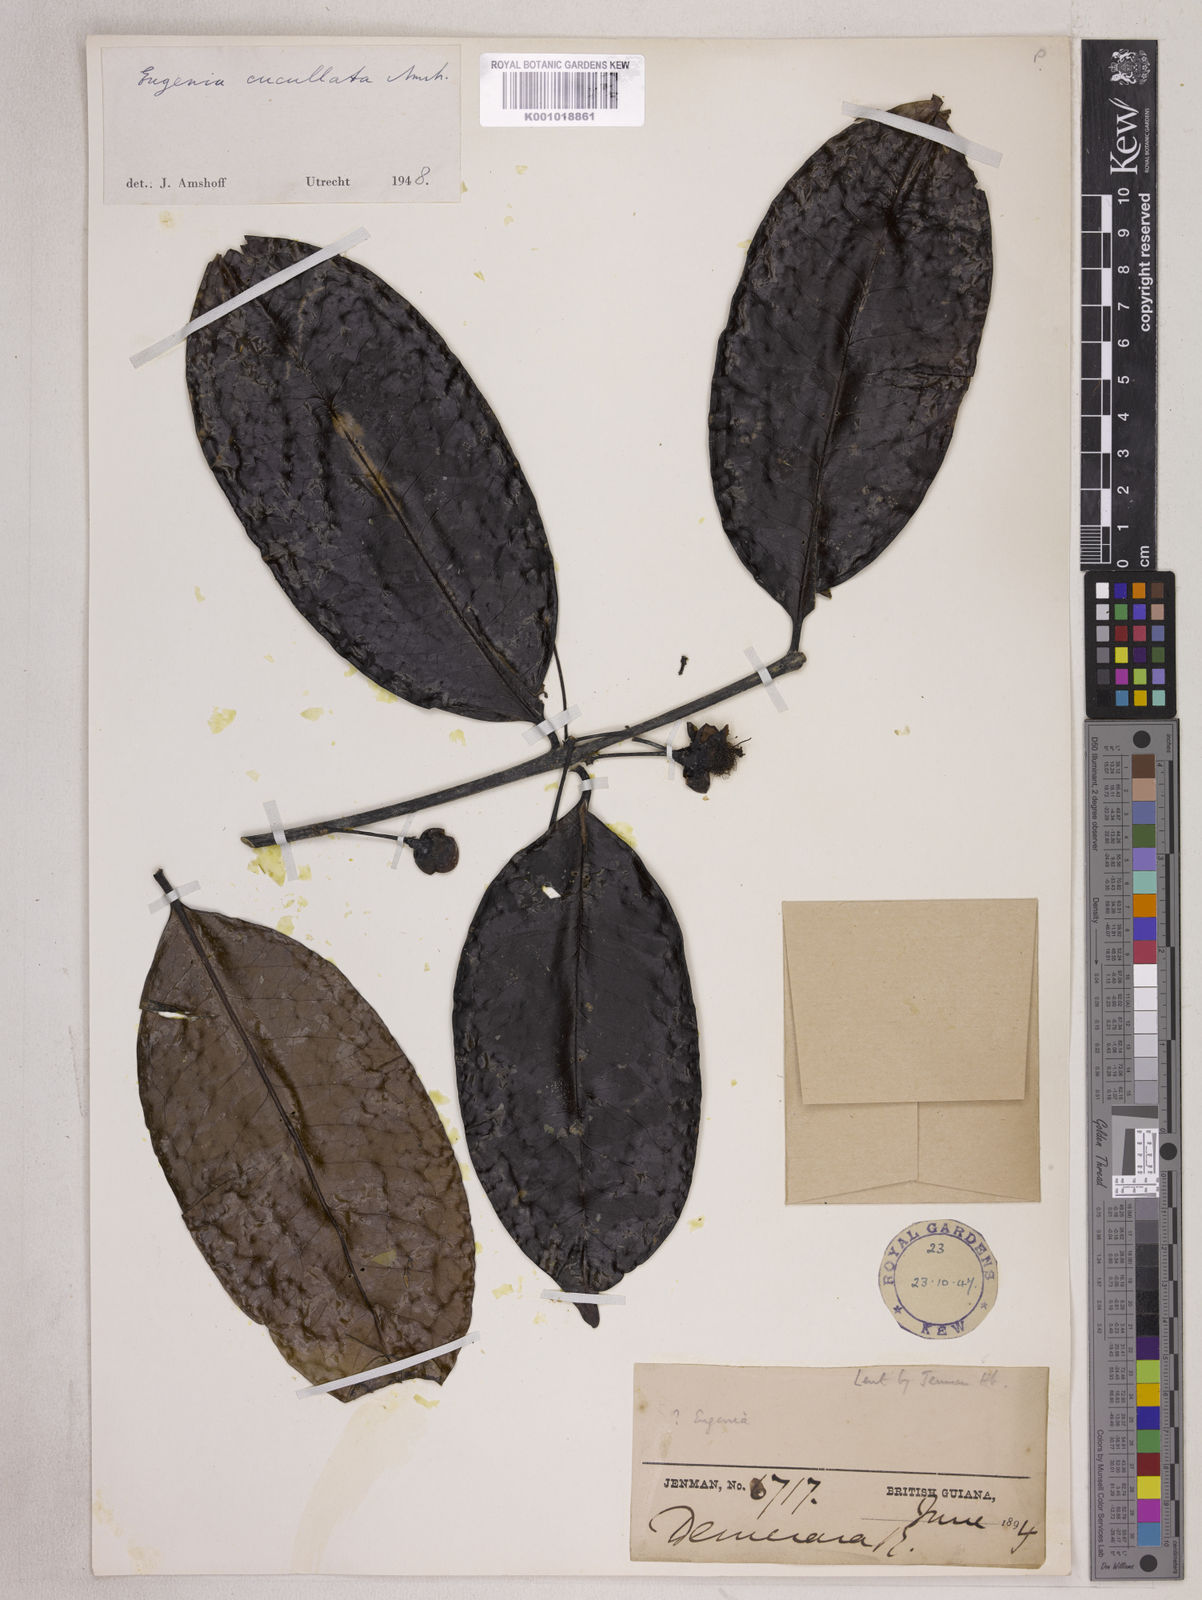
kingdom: Plantae
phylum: Tracheophyta
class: Magnoliopsida
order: Myrtales
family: Myrtaceae
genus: Eugenia
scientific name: Eugenia cucullata
